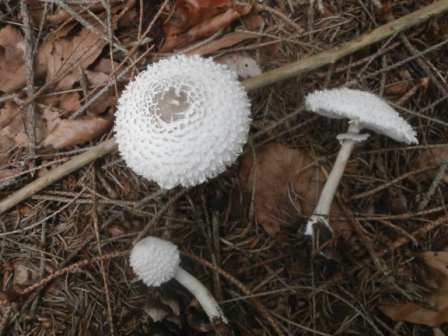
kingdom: Fungi
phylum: Basidiomycota
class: Agaricomycetes
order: Agaricales
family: Agaricaceae
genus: Leucoagaricus
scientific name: Leucoagaricus nympharum
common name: gran-silkehat
